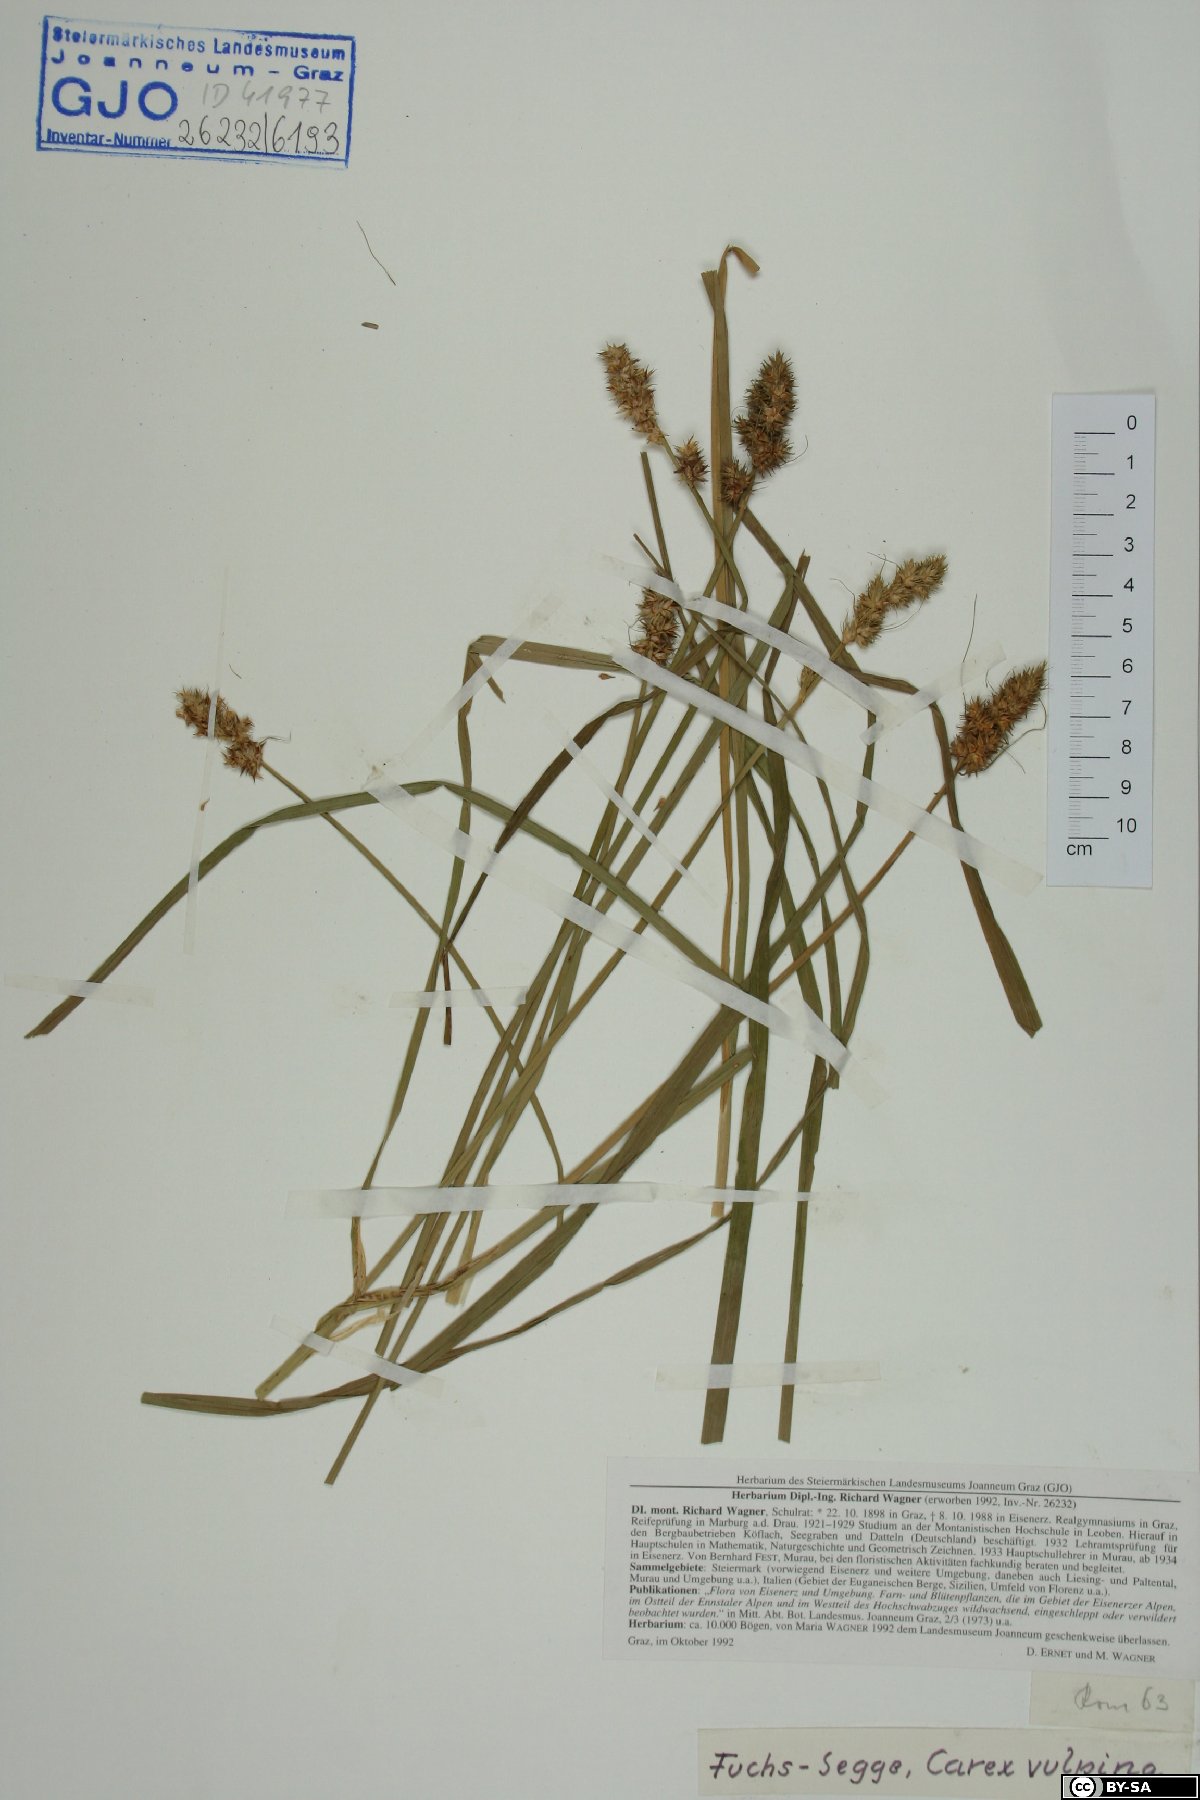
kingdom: Plantae
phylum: Tracheophyta
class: Liliopsida
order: Poales
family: Cyperaceae
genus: Carex
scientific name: Carex vulpina
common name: True fox-sedge
